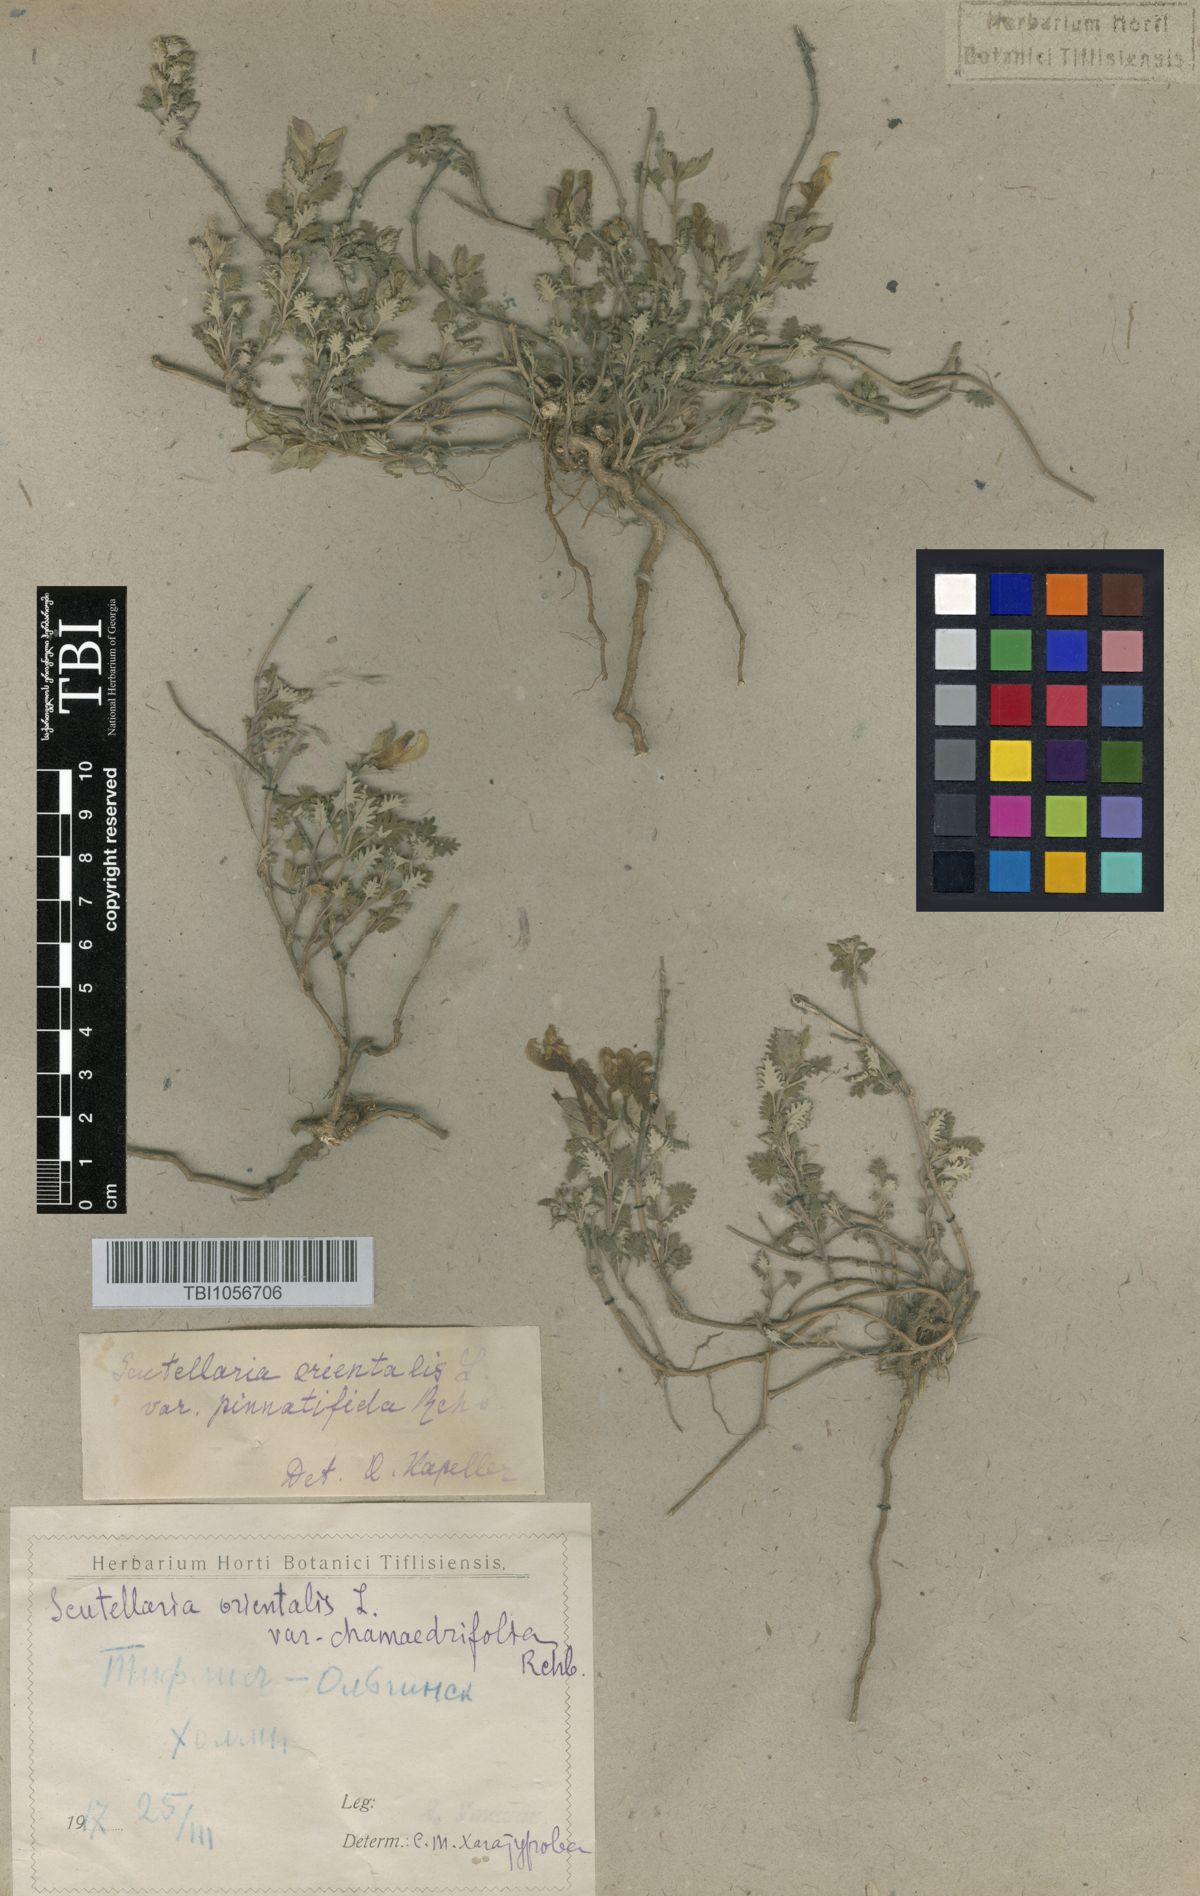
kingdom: Plantae
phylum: Tracheophyta
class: Magnoliopsida
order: Lamiales
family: Lamiaceae
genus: Scutellaria
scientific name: Scutellaria orientalis
